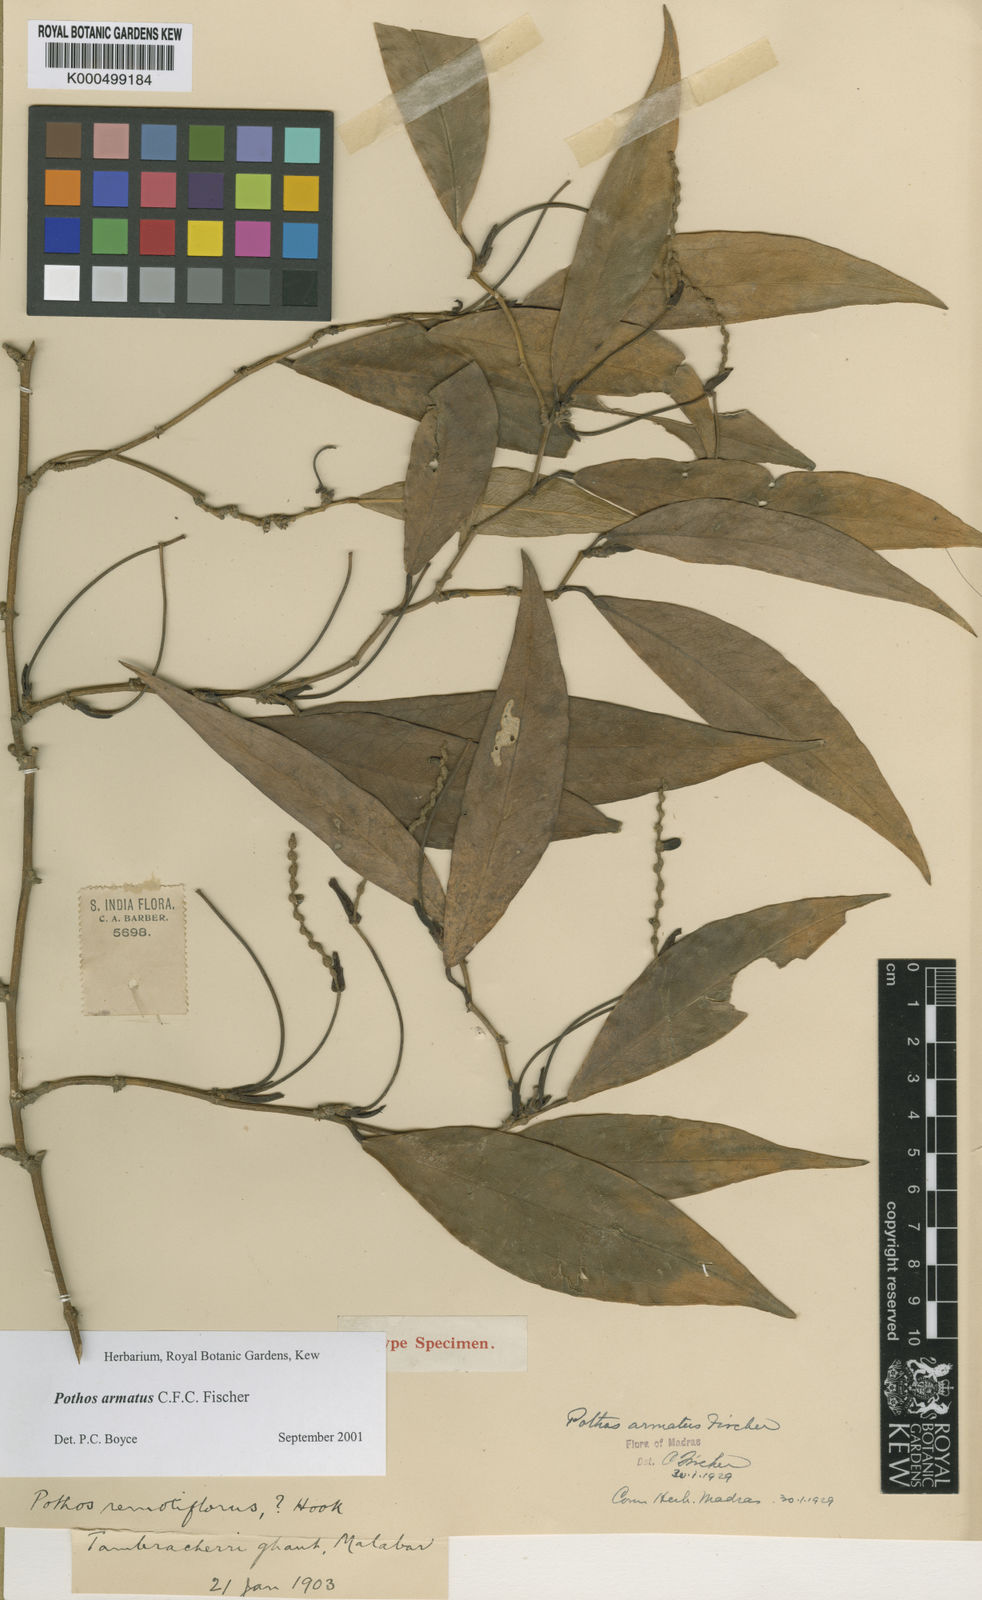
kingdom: Plantae
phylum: Tracheophyta
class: Liliopsida
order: Alismatales
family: Araceae
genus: Pothos
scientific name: Pothos armatus
